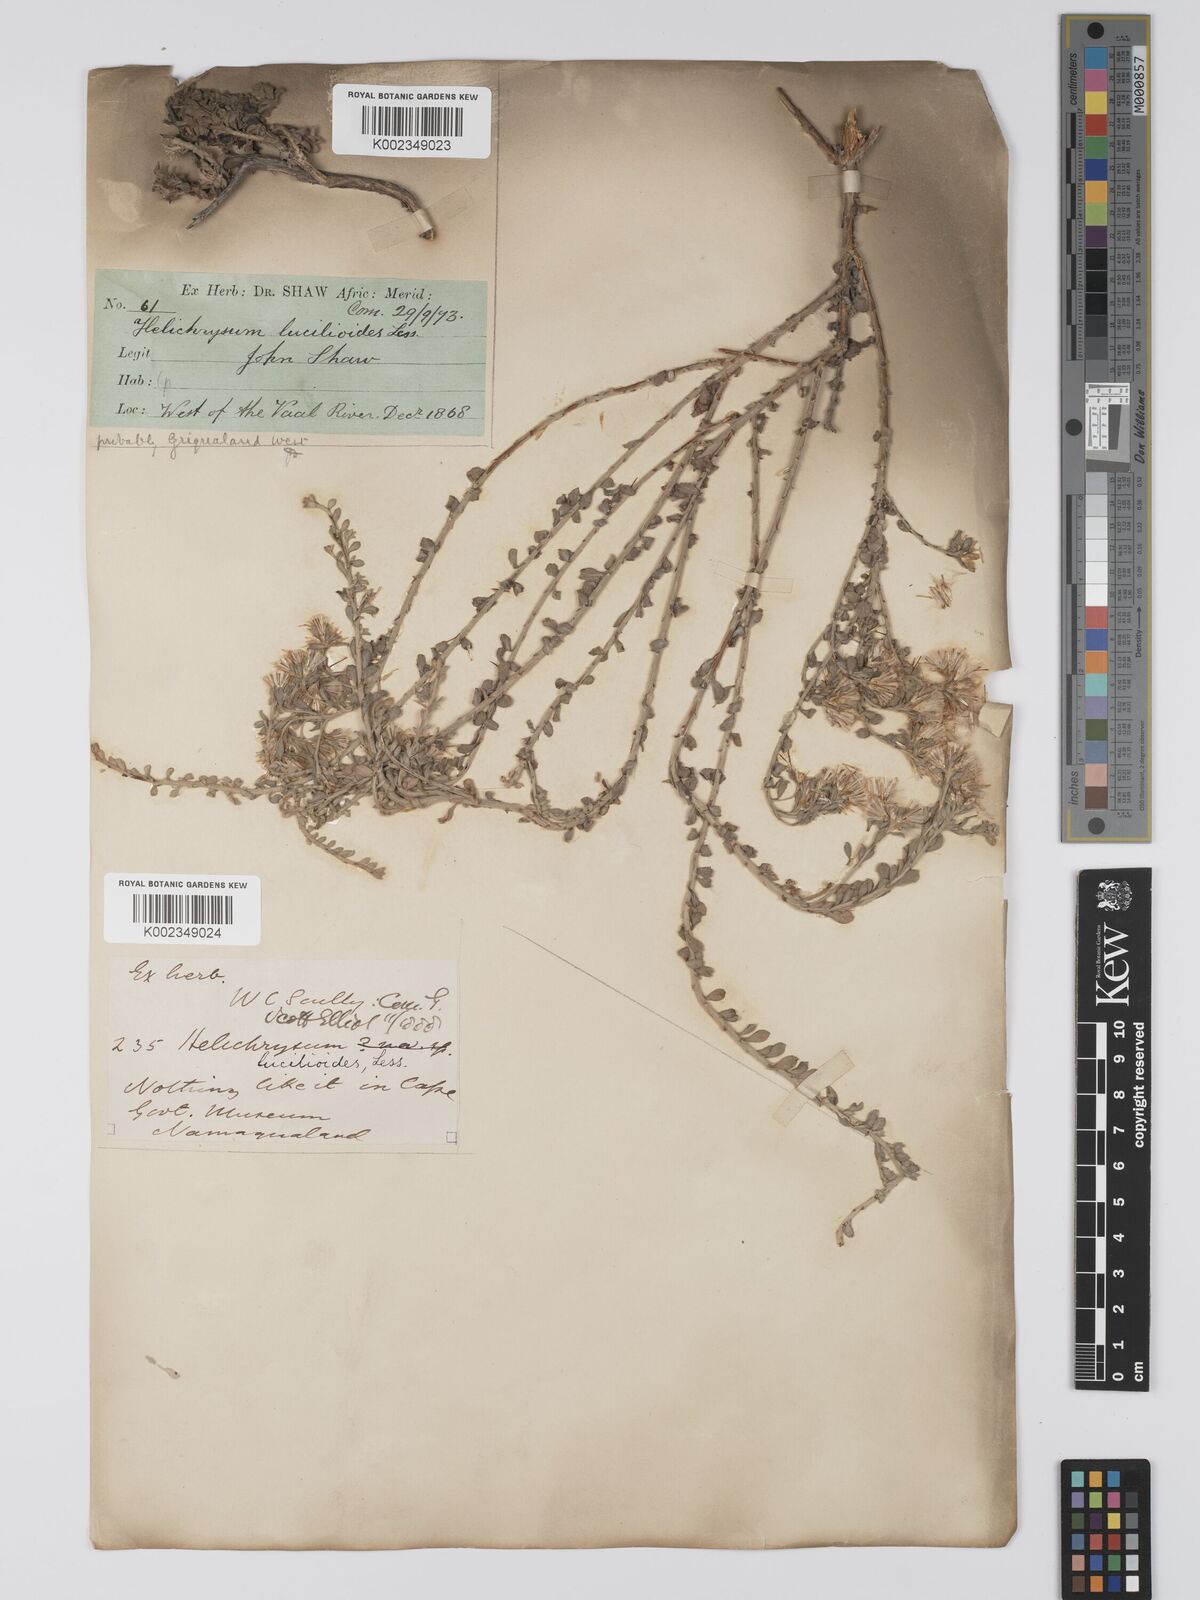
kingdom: Plantae
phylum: Tracheophyta
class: Magnoliopsida
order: Asterales
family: Asteraceae
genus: Helichrysum
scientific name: Helichrysum lucilioides
